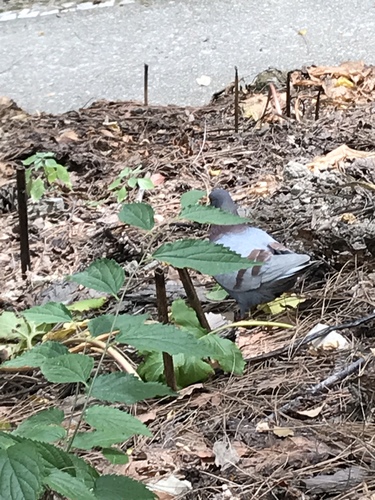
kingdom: Animalia
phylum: Chordata
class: Aves
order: Columbiformes
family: Columbidae
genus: Columba
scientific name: Columba livia
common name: Rock pigeon
